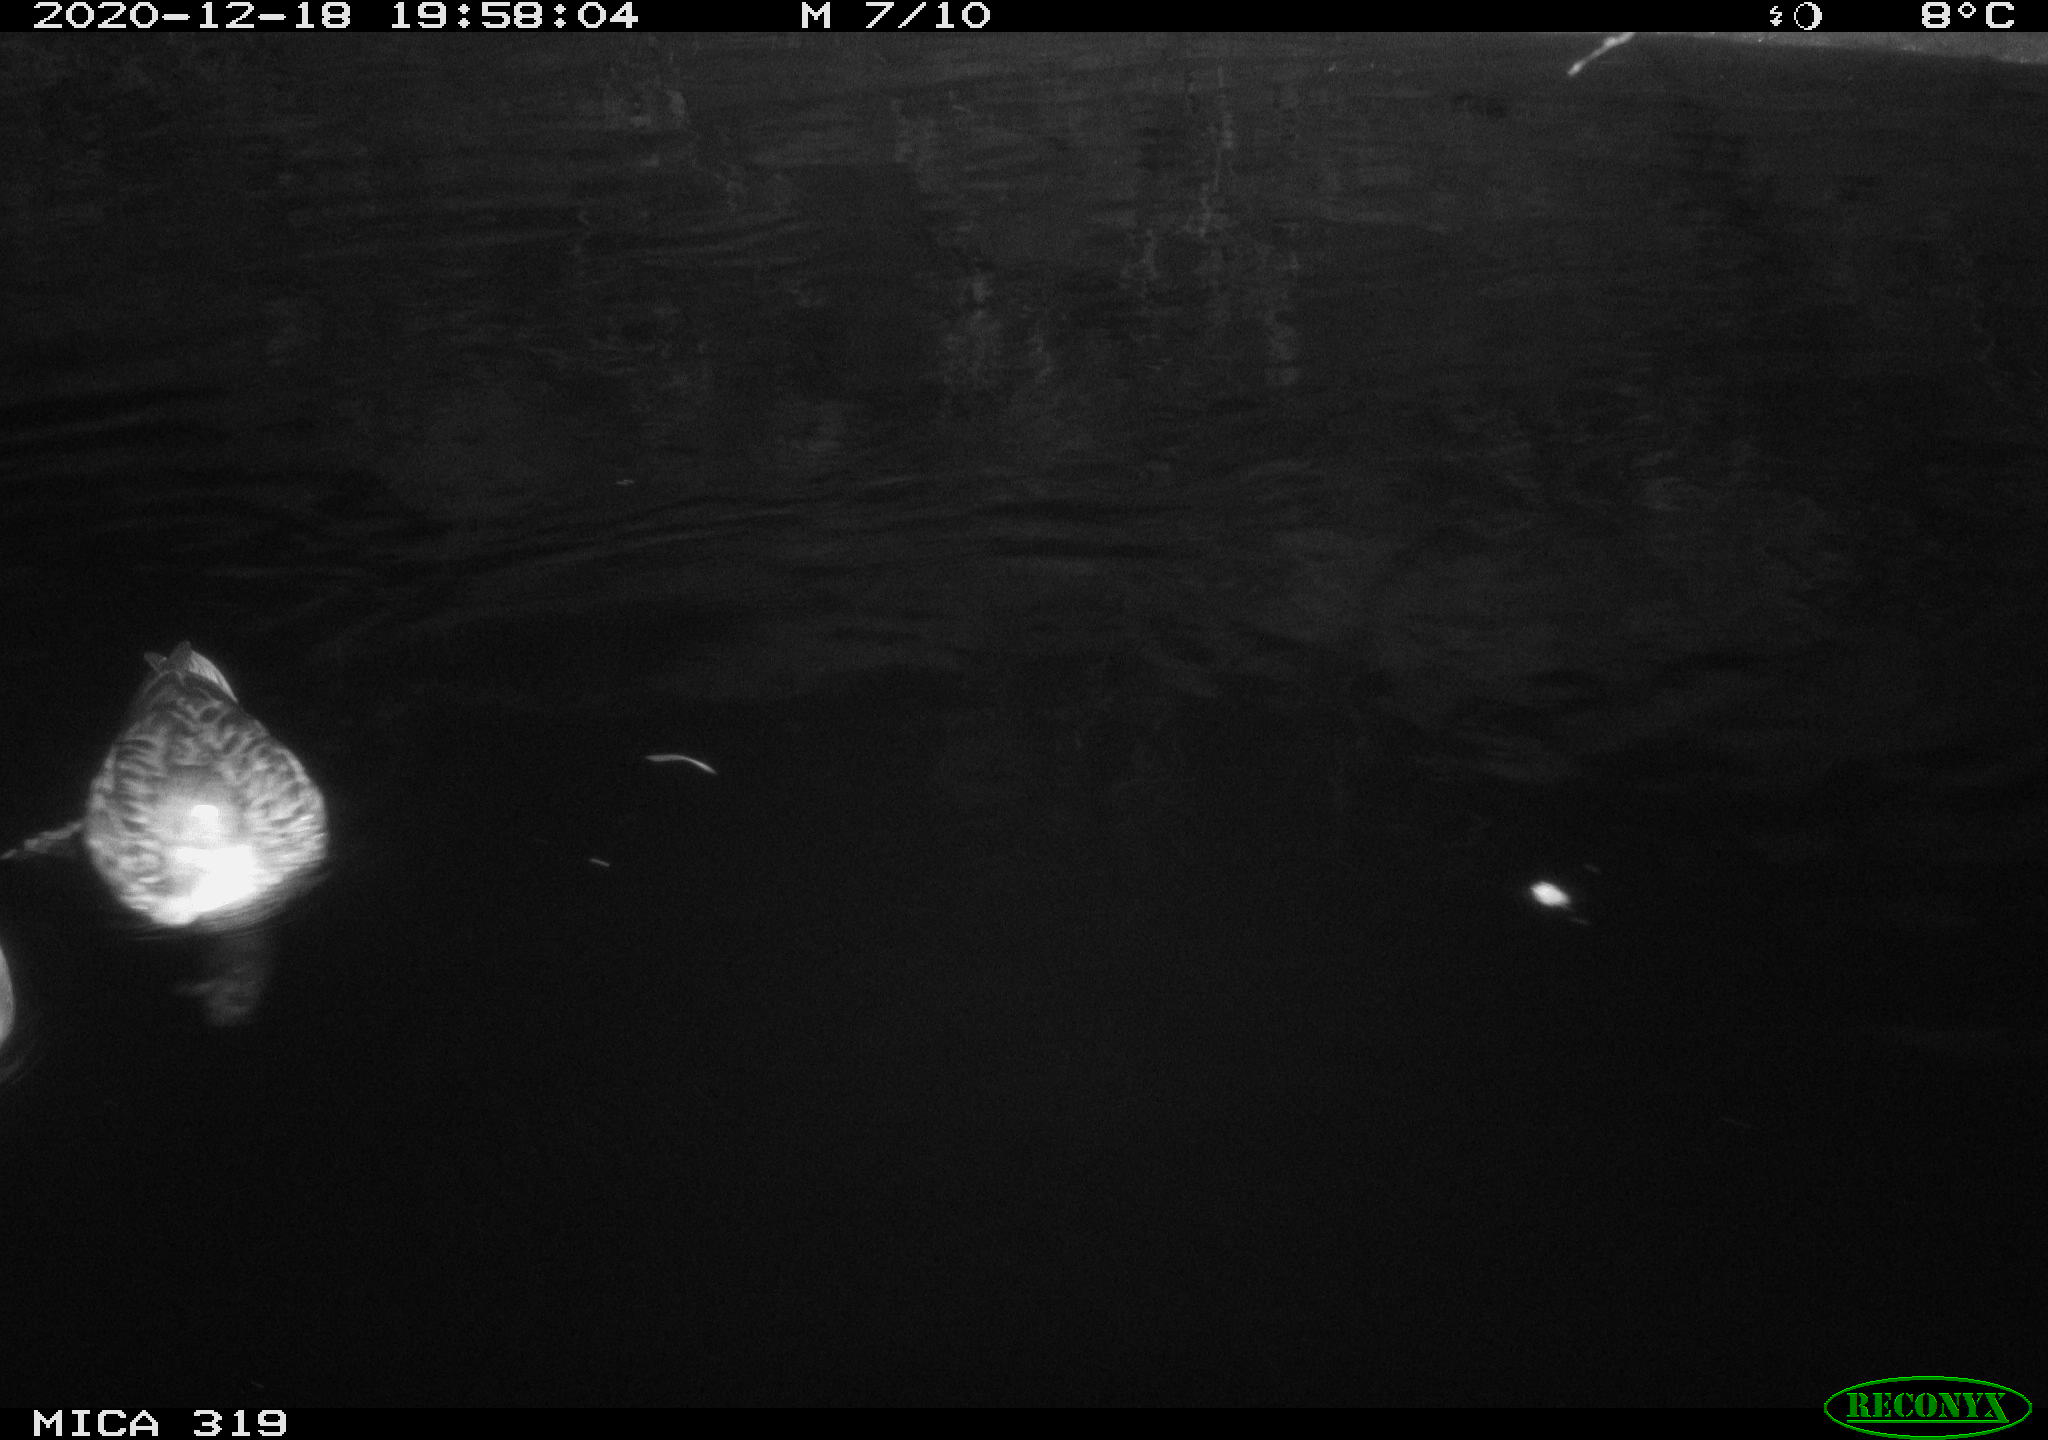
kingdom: Animalia
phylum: Chordata
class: Aves
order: Anseriformes
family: Anatidae
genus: Anas
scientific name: Anas platyrhynchos
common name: Mallard
